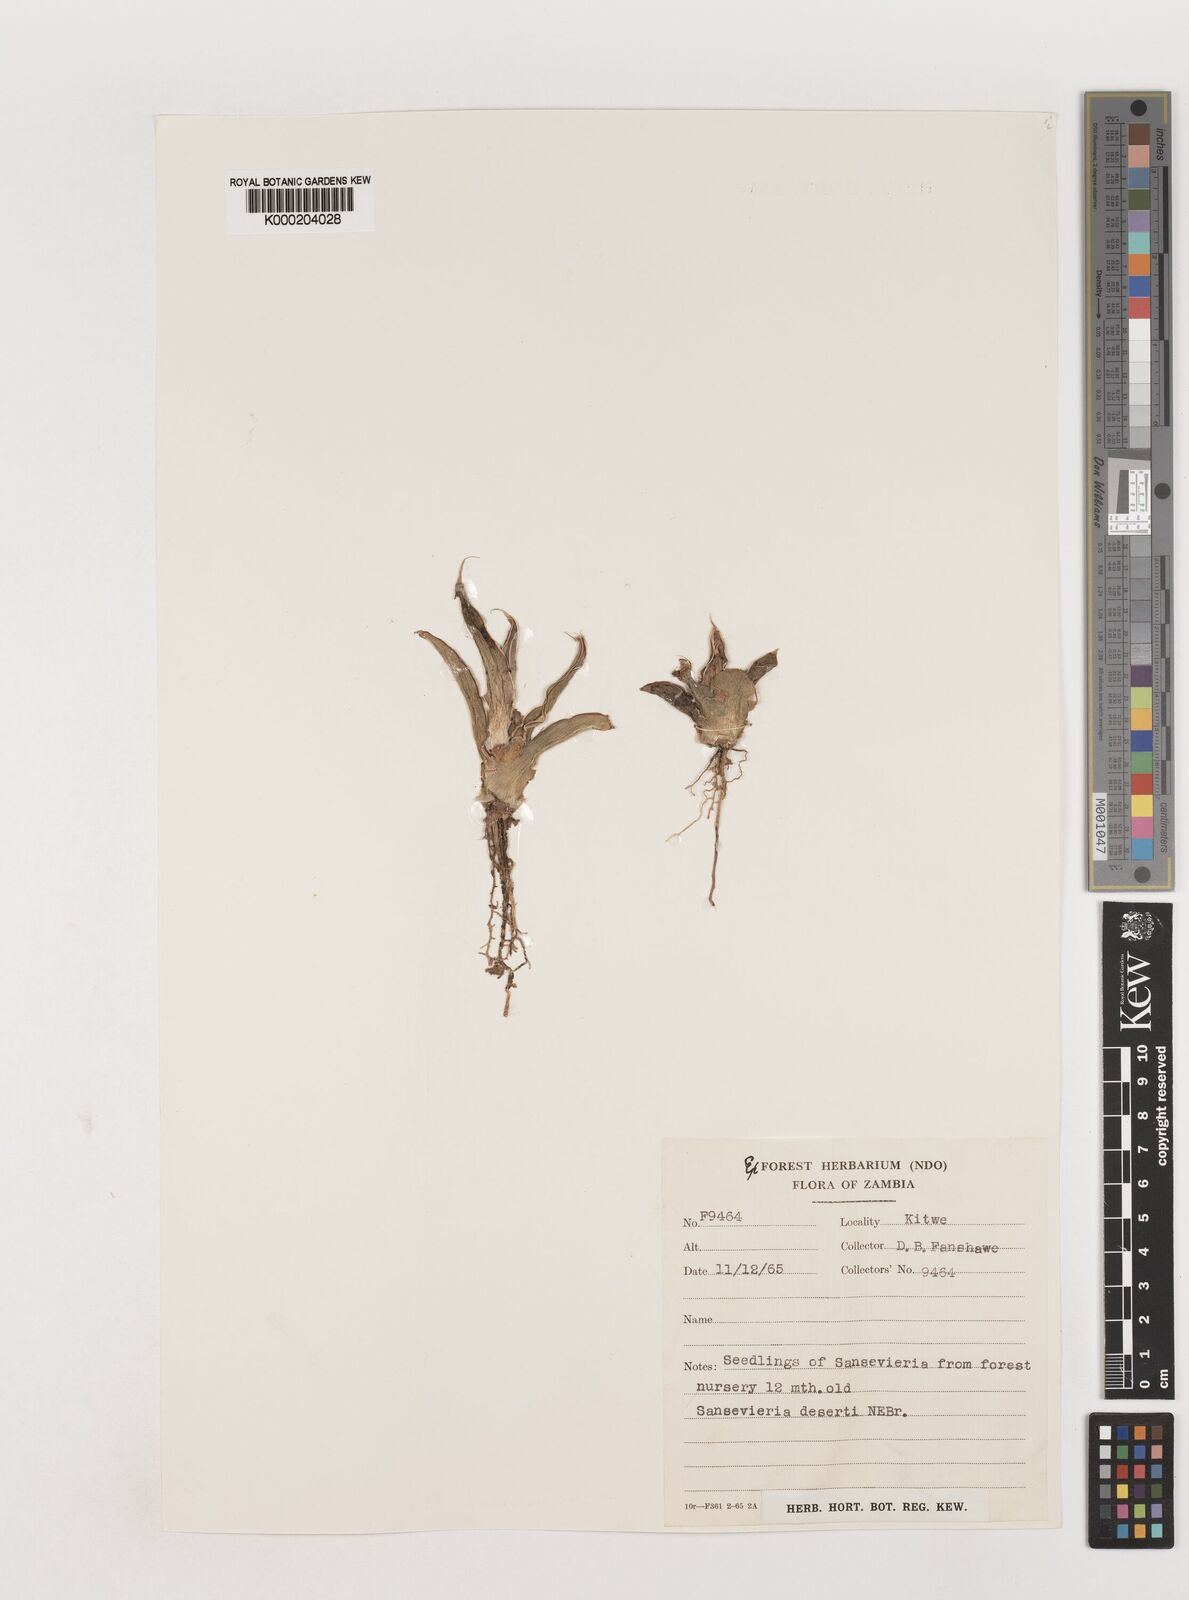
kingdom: Plantae
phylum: Tracheophyta
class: Liliopsida
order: Asparagales
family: Asparagaceae
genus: Dracaena
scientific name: Dracaena pearsonii
